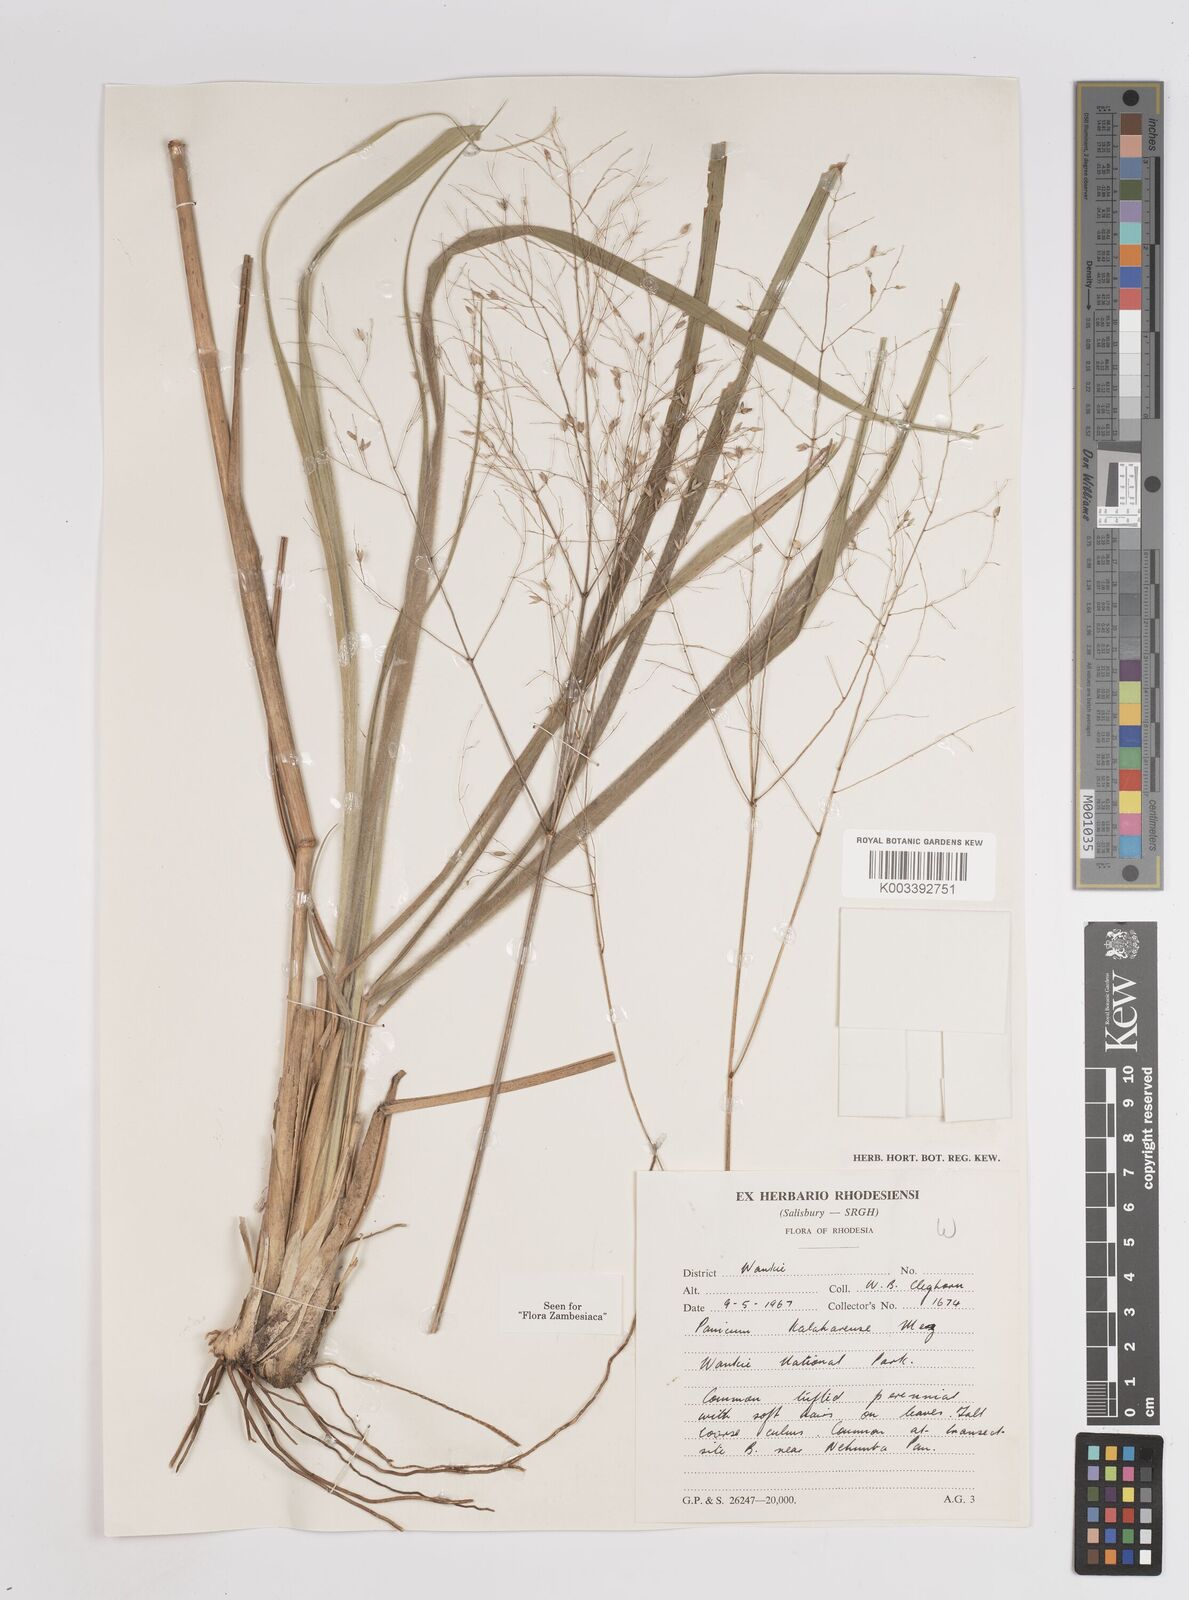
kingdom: Plantae
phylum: Tracheophyta
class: Liliopsida
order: Poales
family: Poaceae
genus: Panicum
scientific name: Panicum kalaharense
